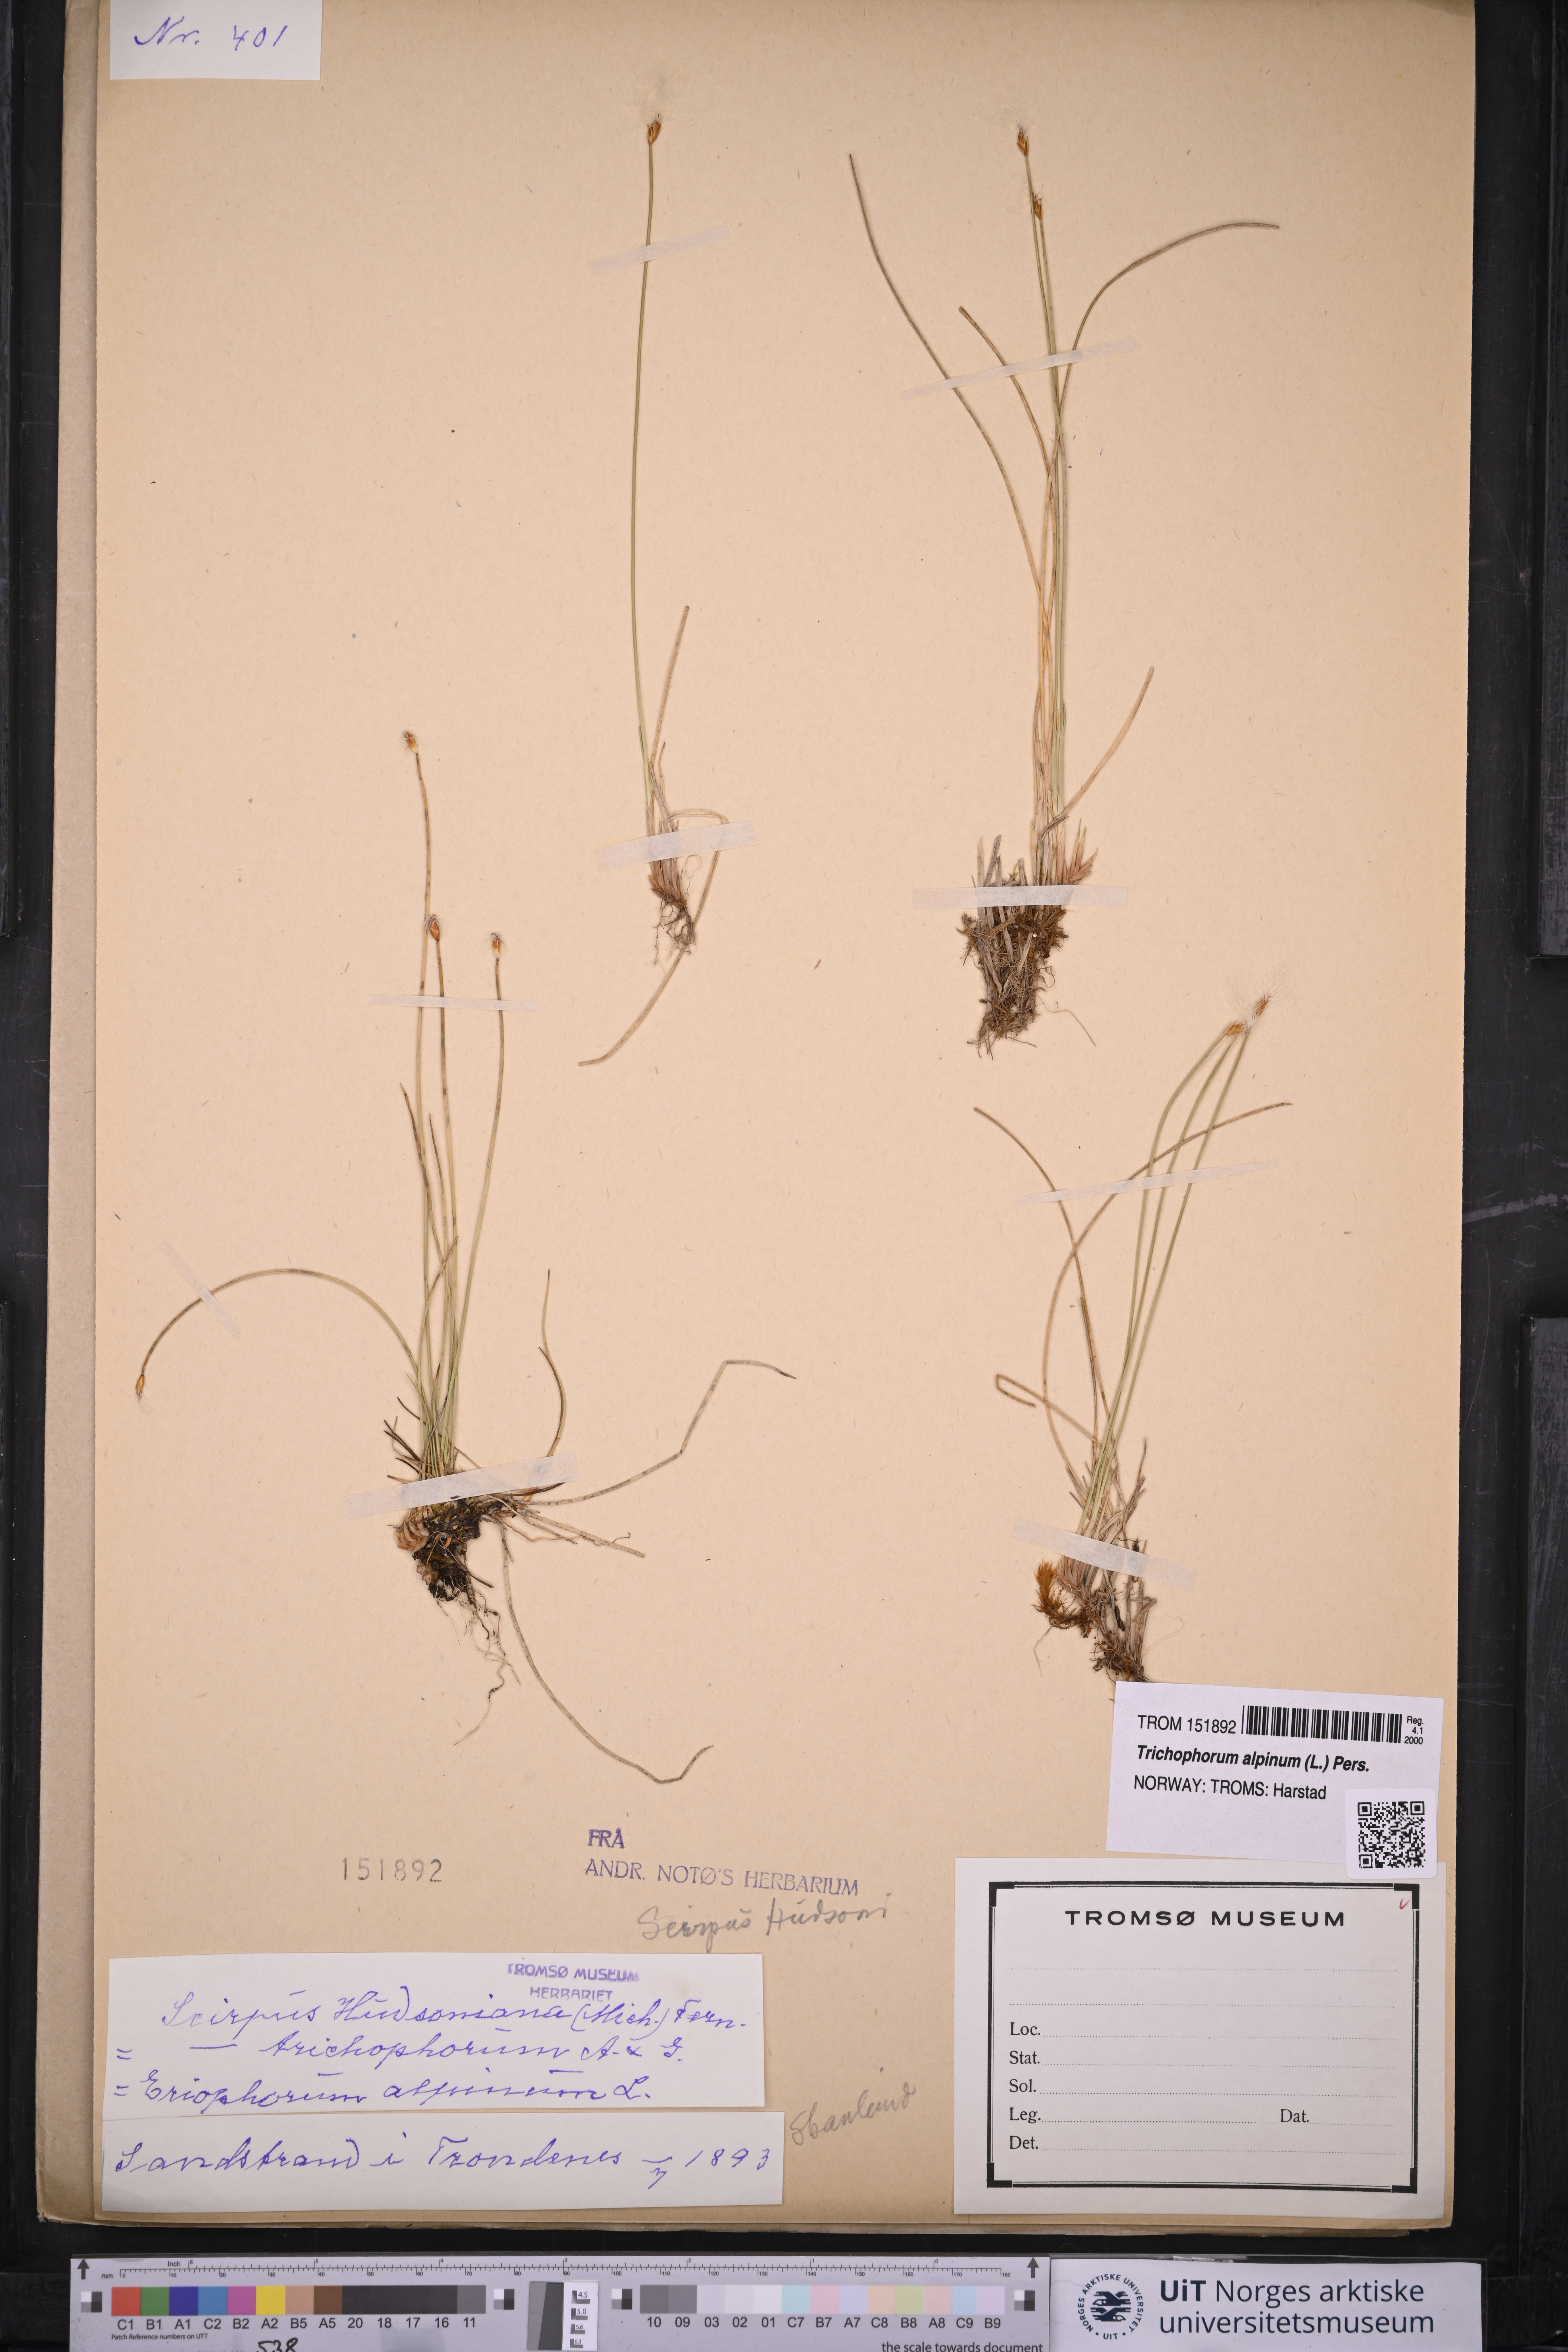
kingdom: Plantae
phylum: Tracheophyta
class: Liliopsida
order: Poales
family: Cyperaceae
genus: Trichophorum
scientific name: Trichophorum alpinum
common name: Alpine bulrush
